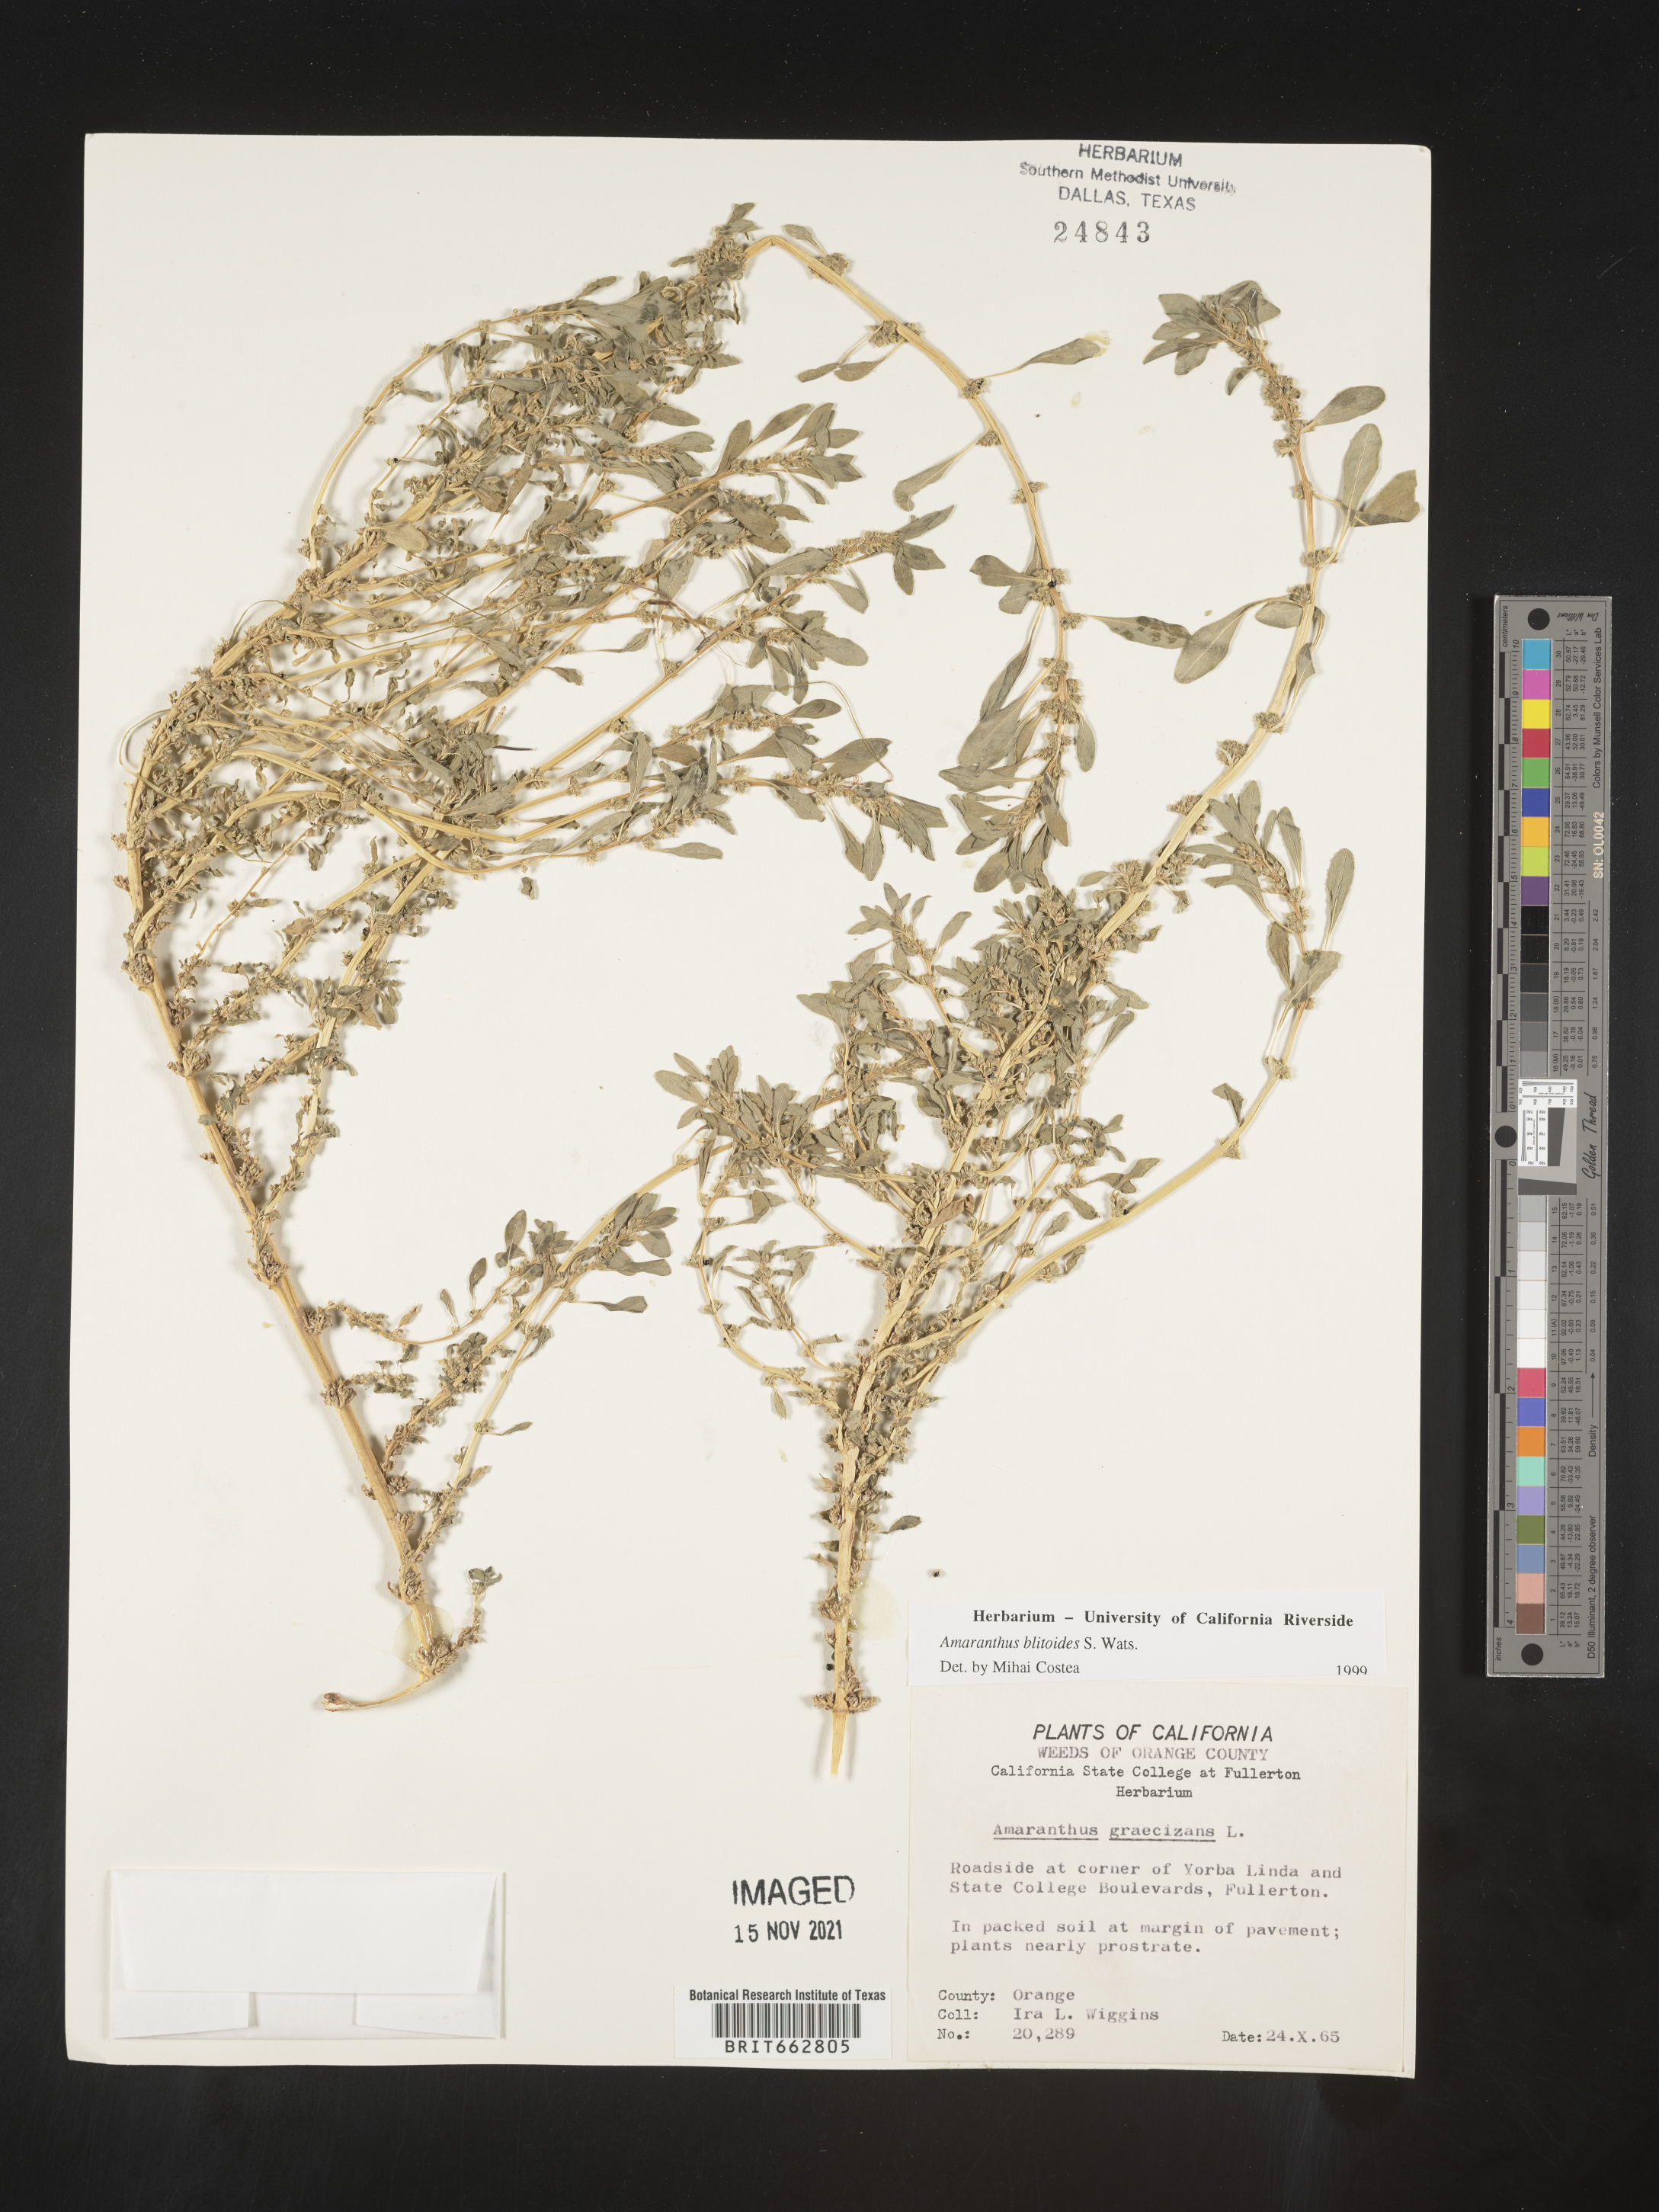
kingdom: Plantae
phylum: Tracheophyta
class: Magnoliopsida
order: Caryophyllales
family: Amaranthaceae
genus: Amaranthus
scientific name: Amaranthus blitoides
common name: Prostrate pigweed
